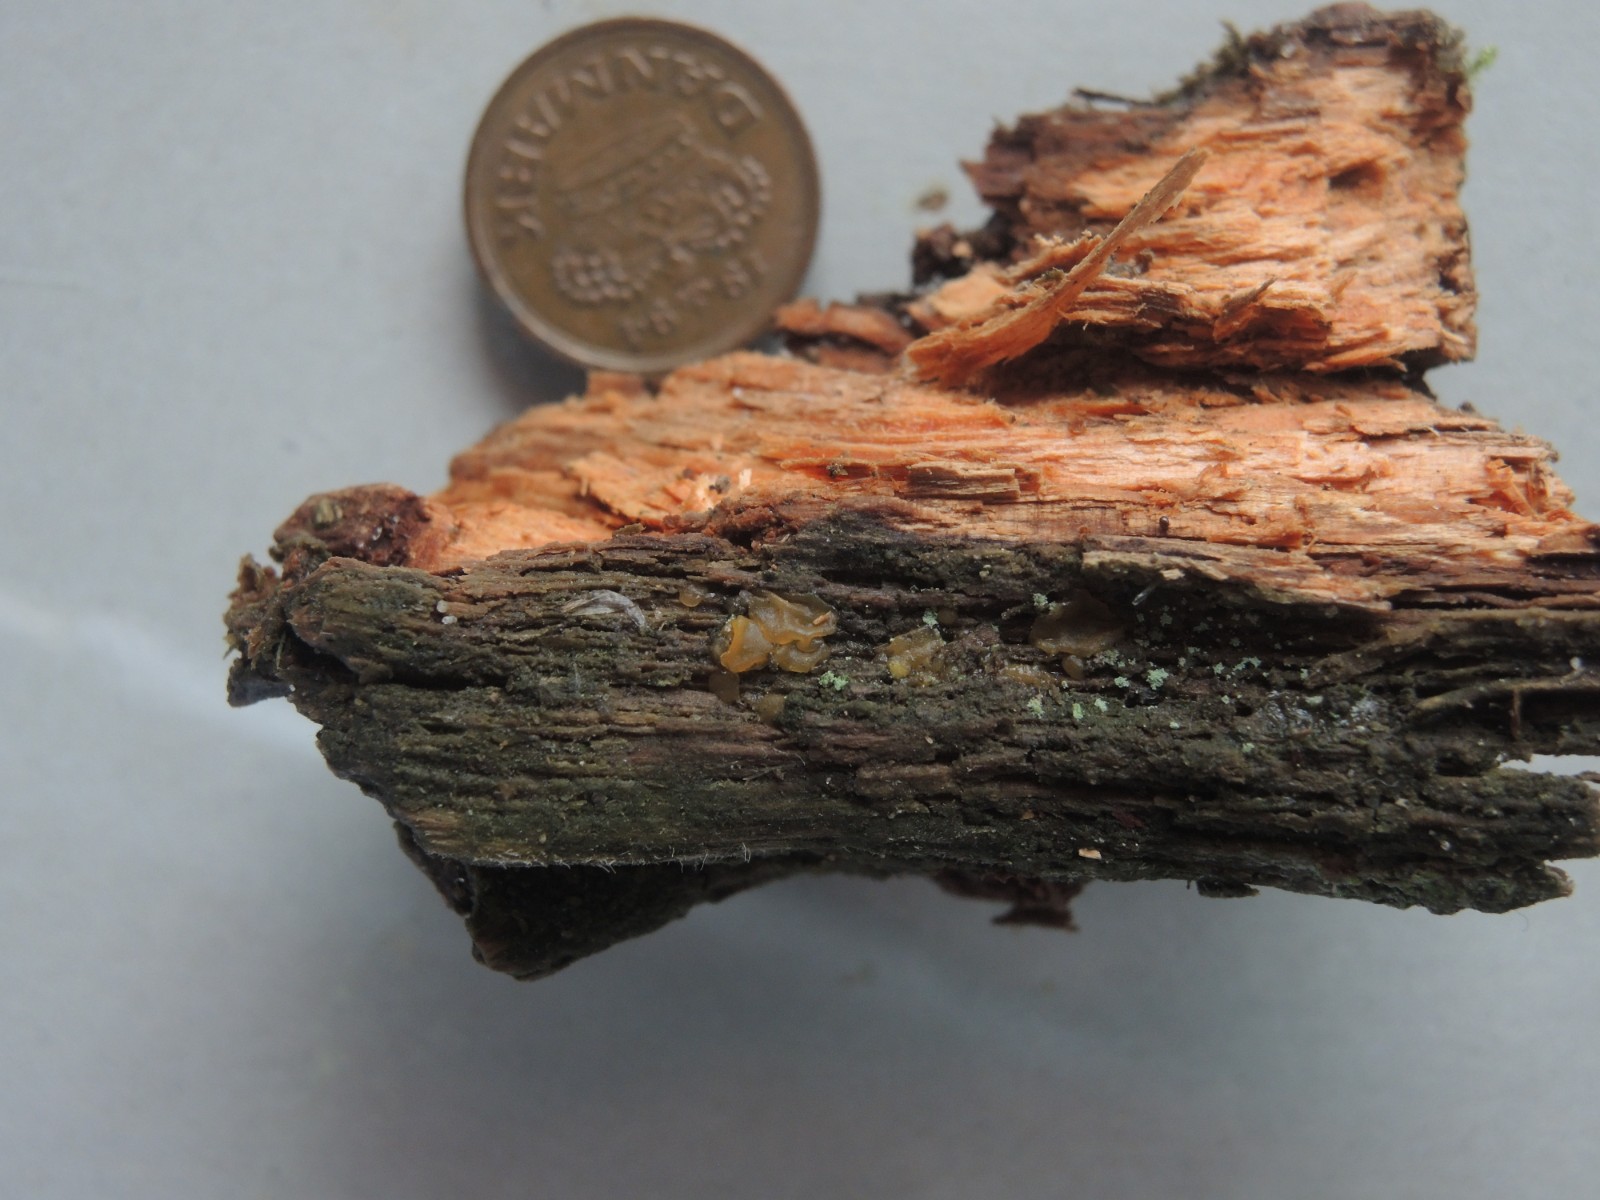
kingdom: Fungi
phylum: Basidiomycota
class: Dacrymycetes
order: Dacrymycetales
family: Dacrymycetaceae
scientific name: Dacrymycetaceae
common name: tåresvampfamilien
